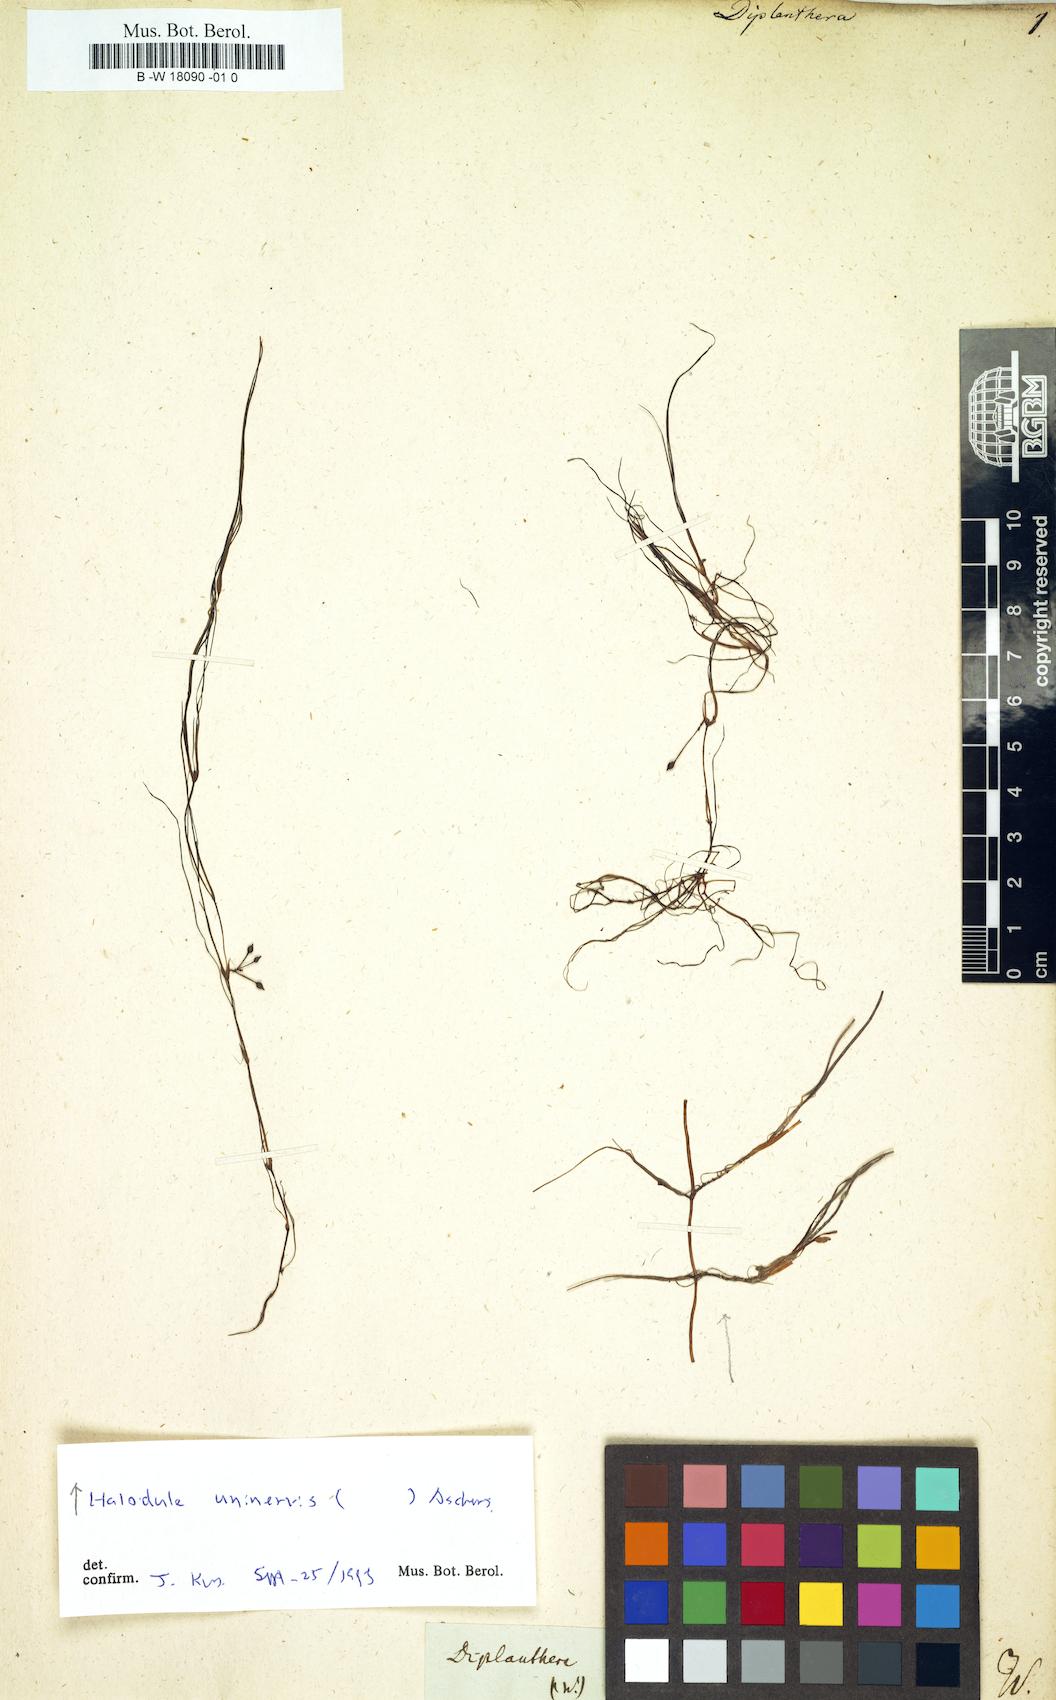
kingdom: Plantae
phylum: Tracheophyta
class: Magnoliopsida
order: Lamiales
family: Acanthaceae
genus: Diplanthera
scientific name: Diplanthera
